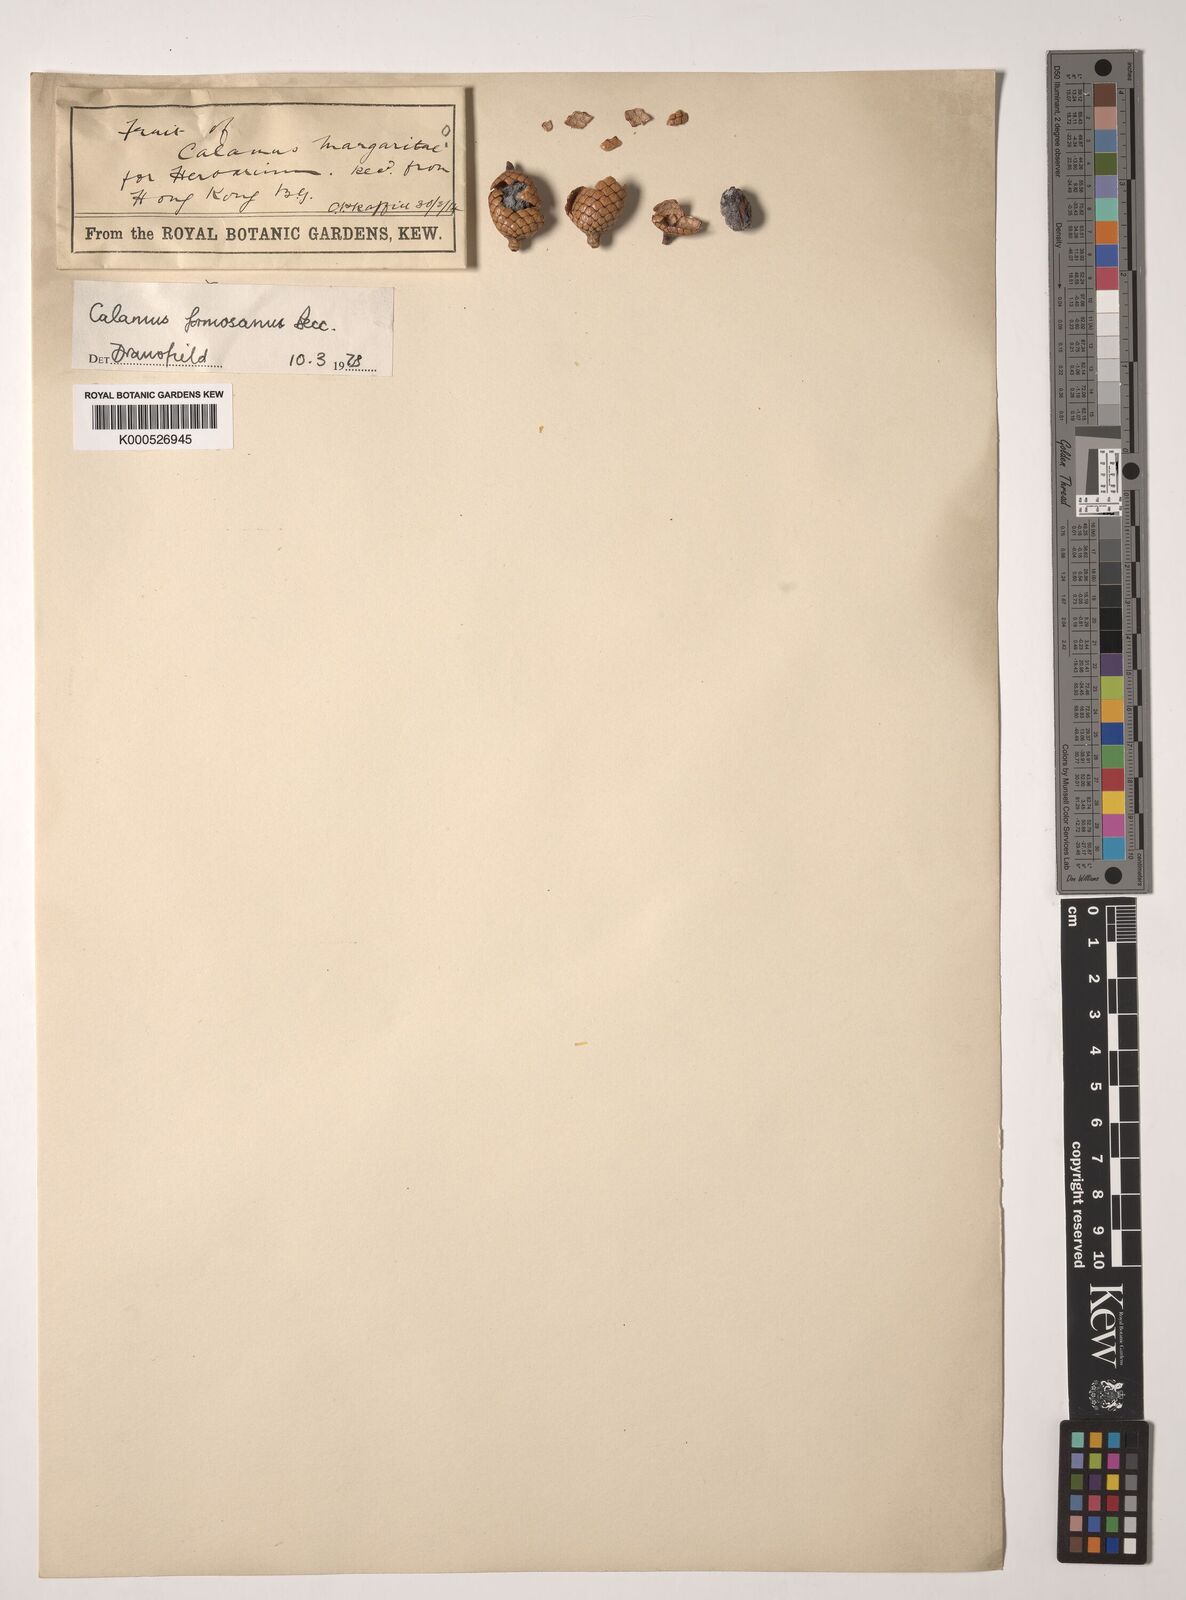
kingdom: Plantae
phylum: Tracheophyta
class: Liliopsida
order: Arecales
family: Arecaceae
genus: Calamus
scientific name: Calamus formosanus
